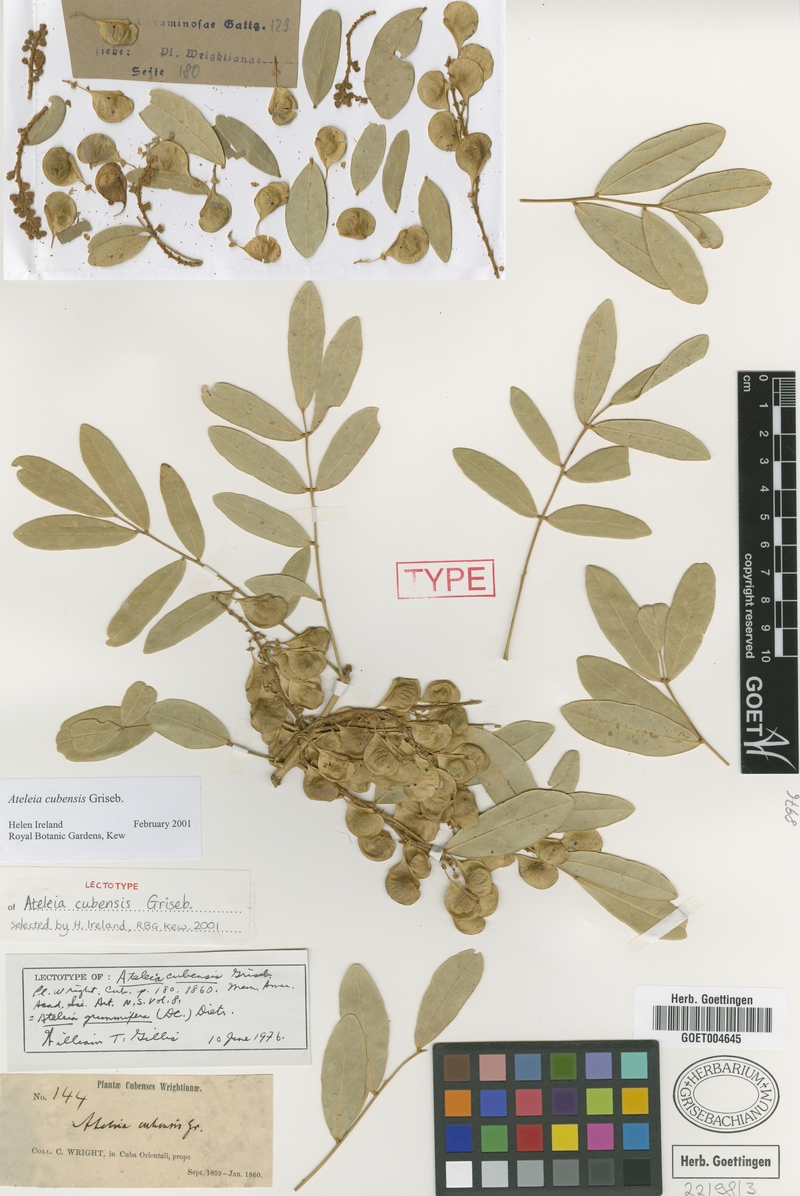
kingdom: Plantae
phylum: Tracheophyta
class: Magnoliopsida
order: Fabales
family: Fabaceae
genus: Ateleia
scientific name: Ateleia cubensis
